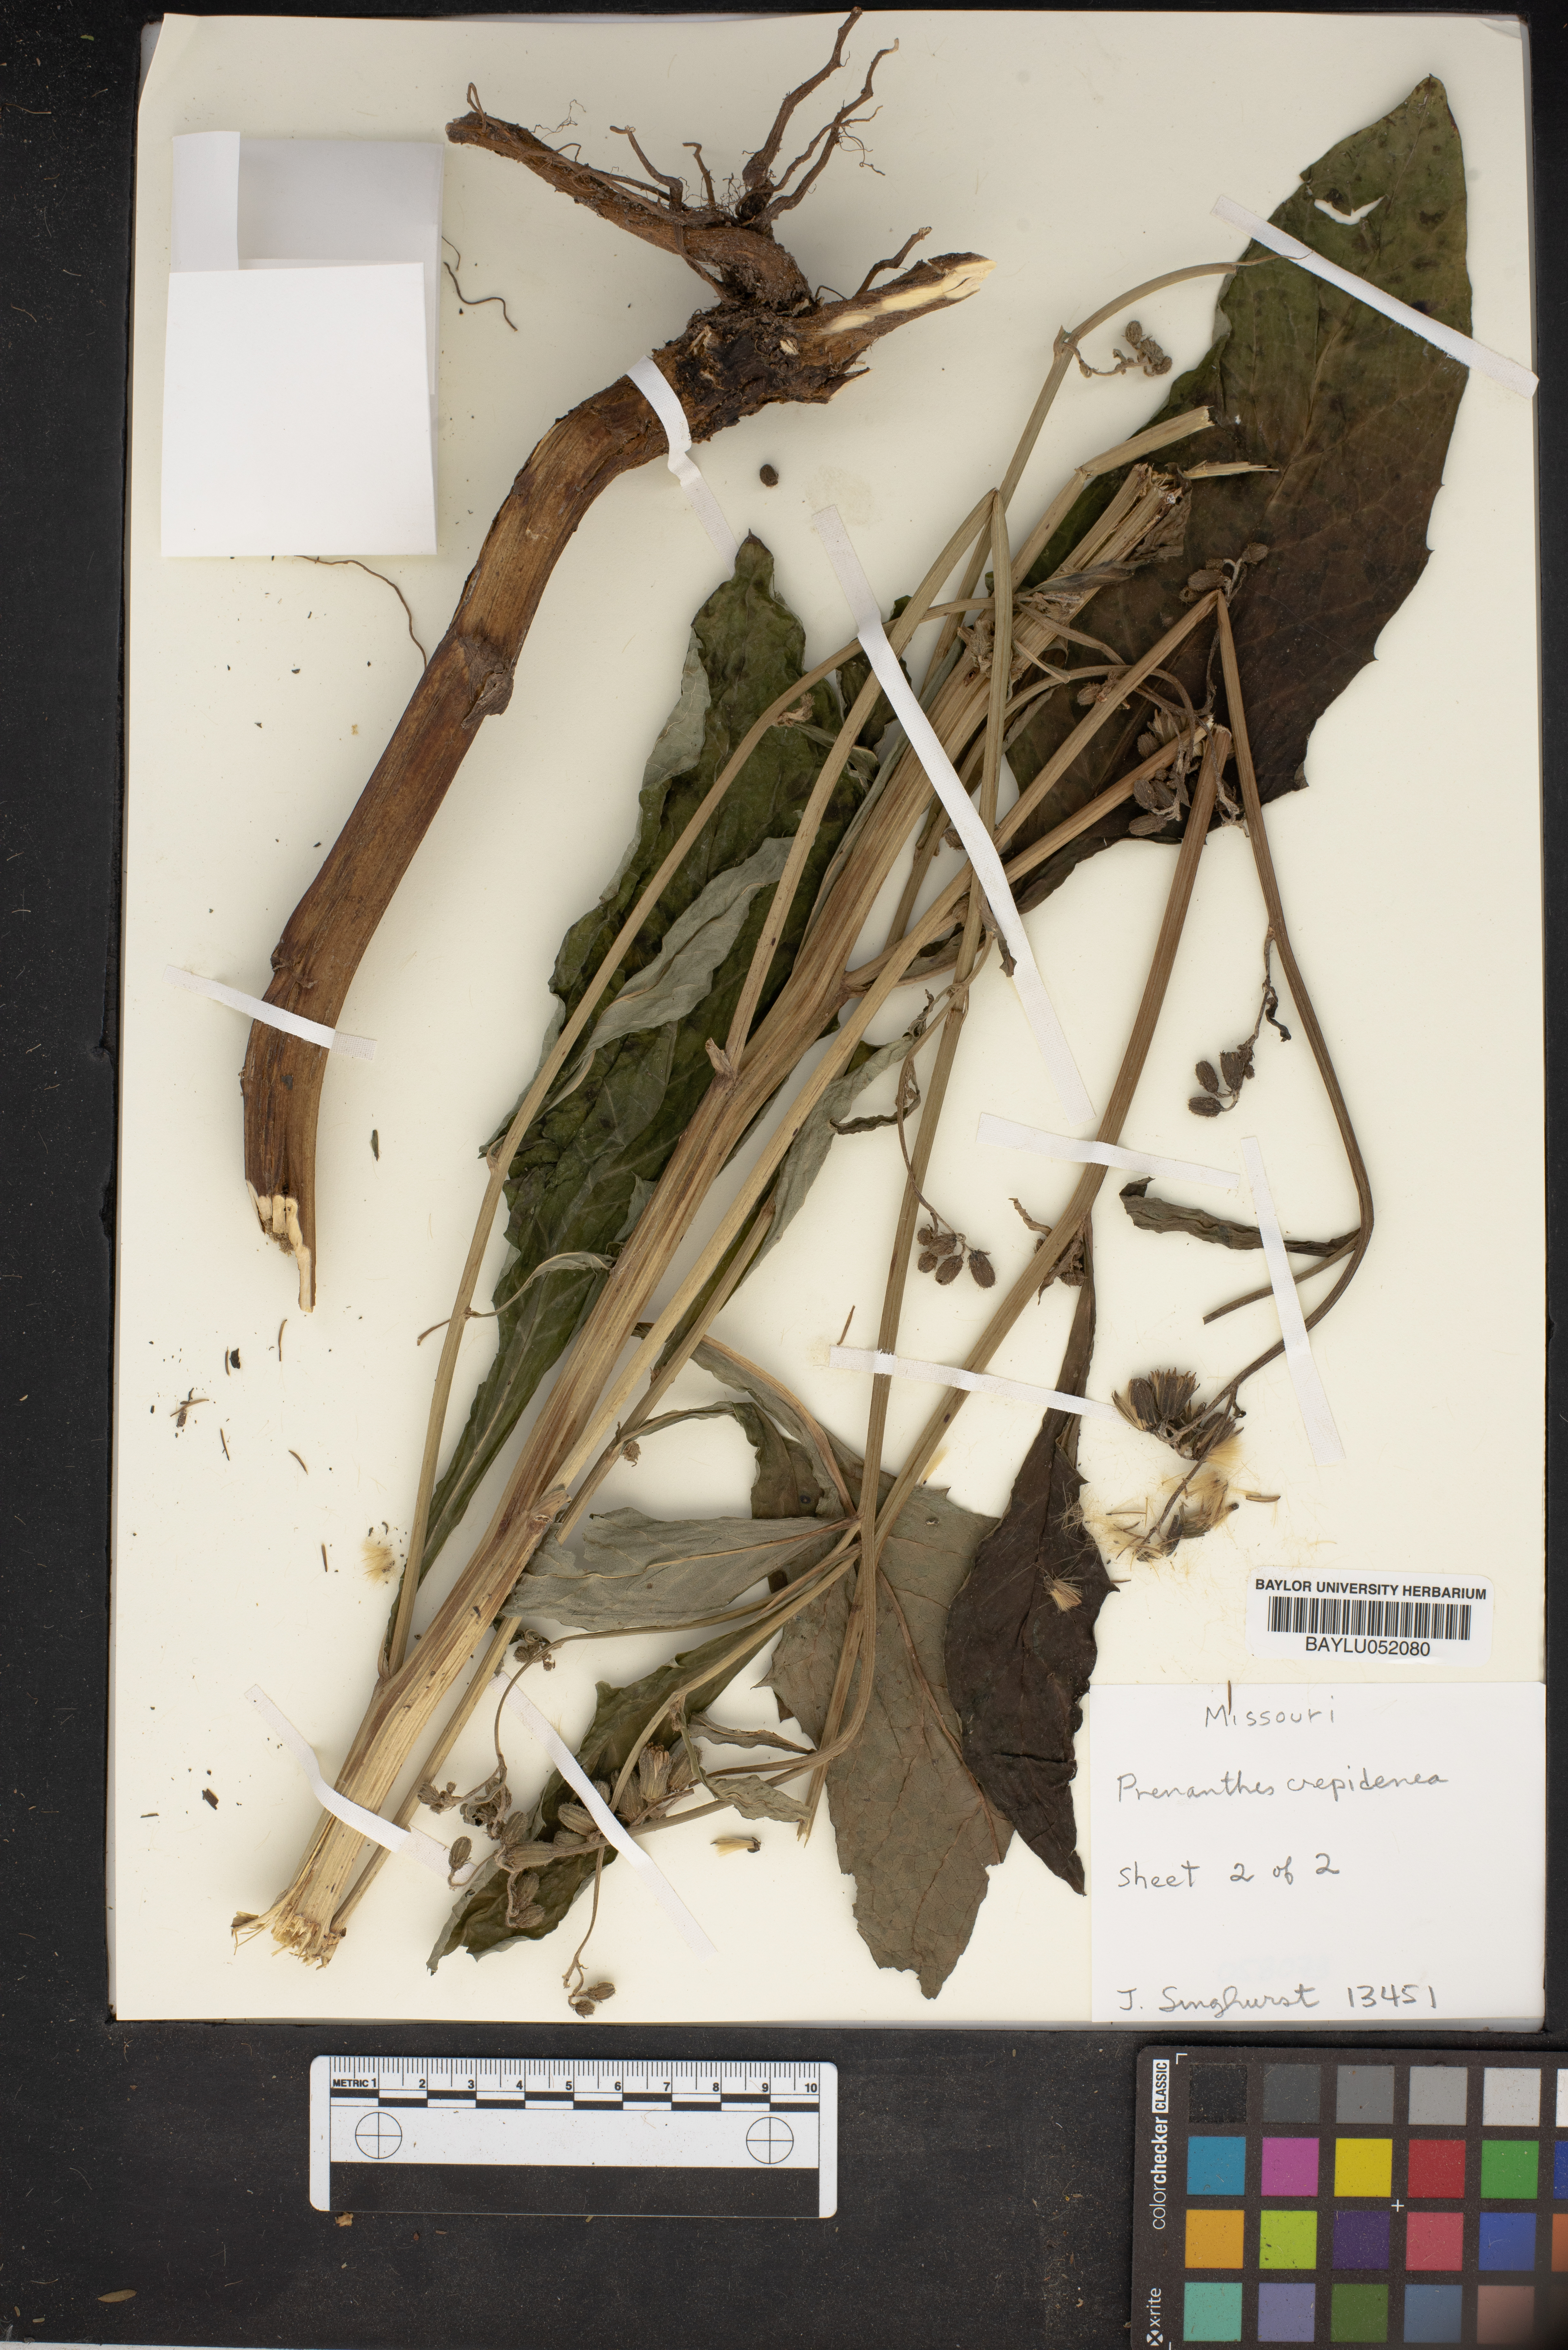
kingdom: Plantae
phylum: Tracheophyta
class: Magnoliopsida
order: Asterales
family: Asteraceae
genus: Nabalus
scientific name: Nabalus crepidineus
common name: Nodding rattlesnakeroot
